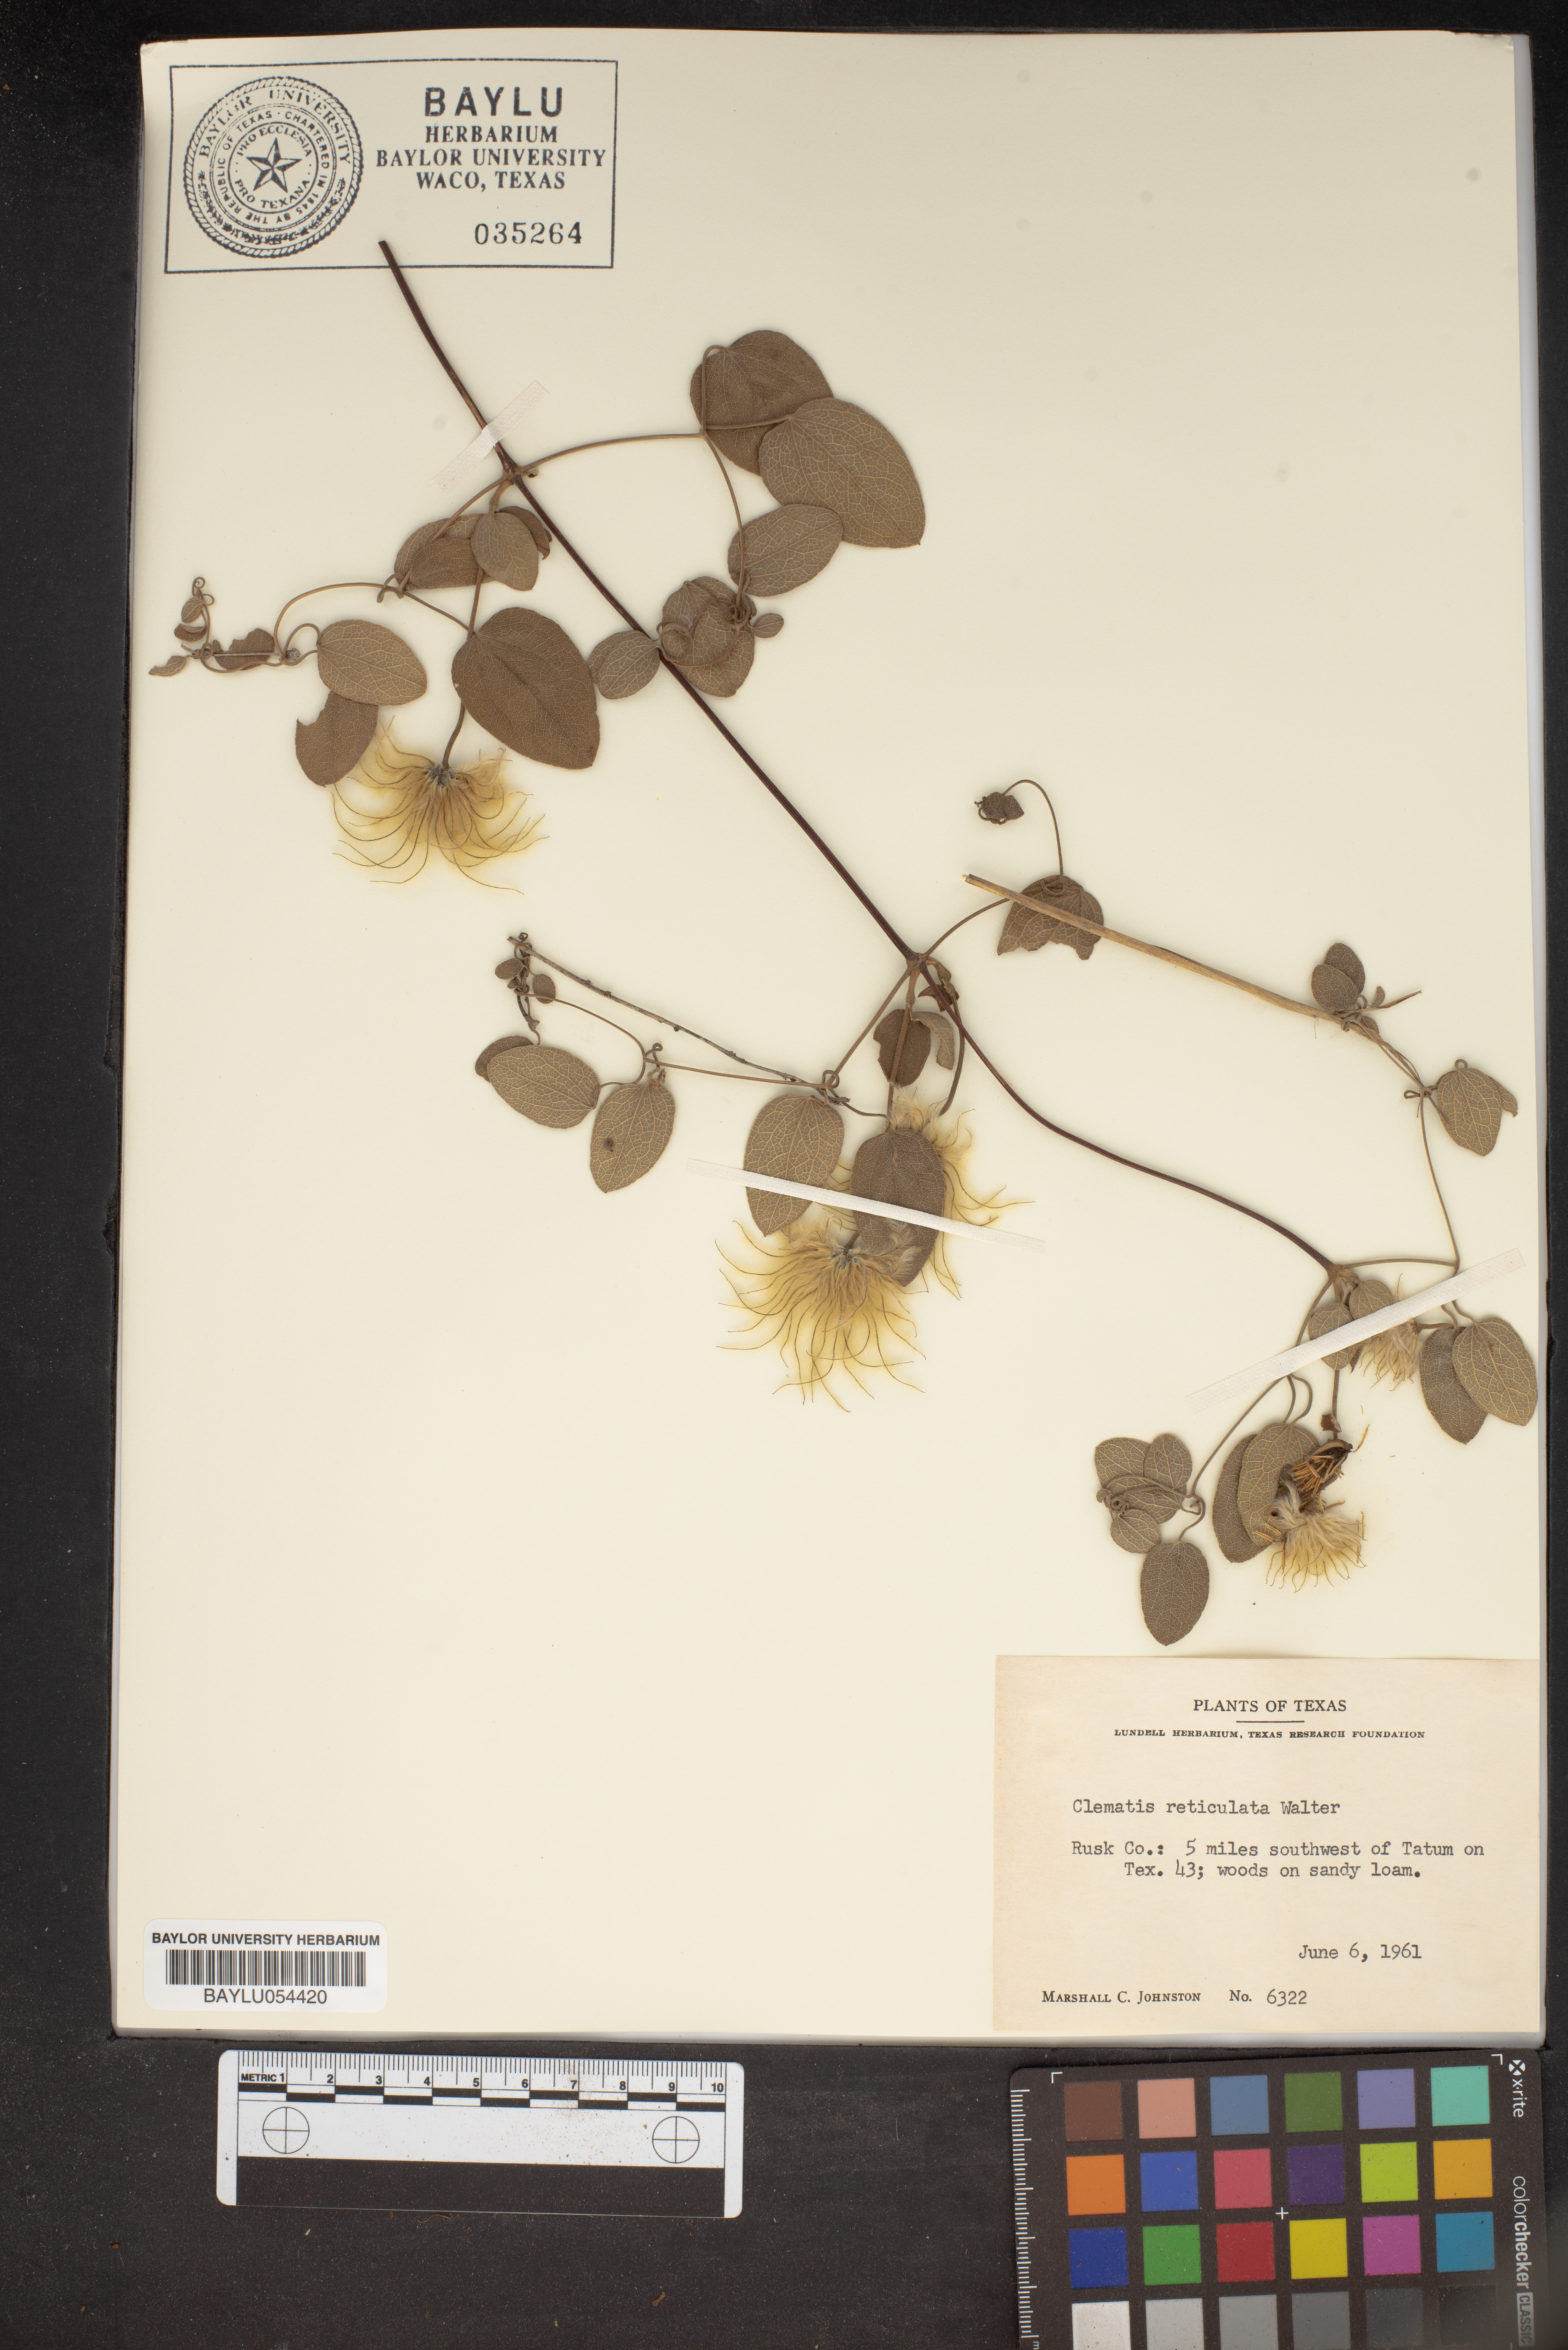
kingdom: Plantae
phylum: Tracheophyta
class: Magnoliopsida
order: Ranunculales
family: Ranunculaceae
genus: Clematis
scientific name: Clematis reticulata
